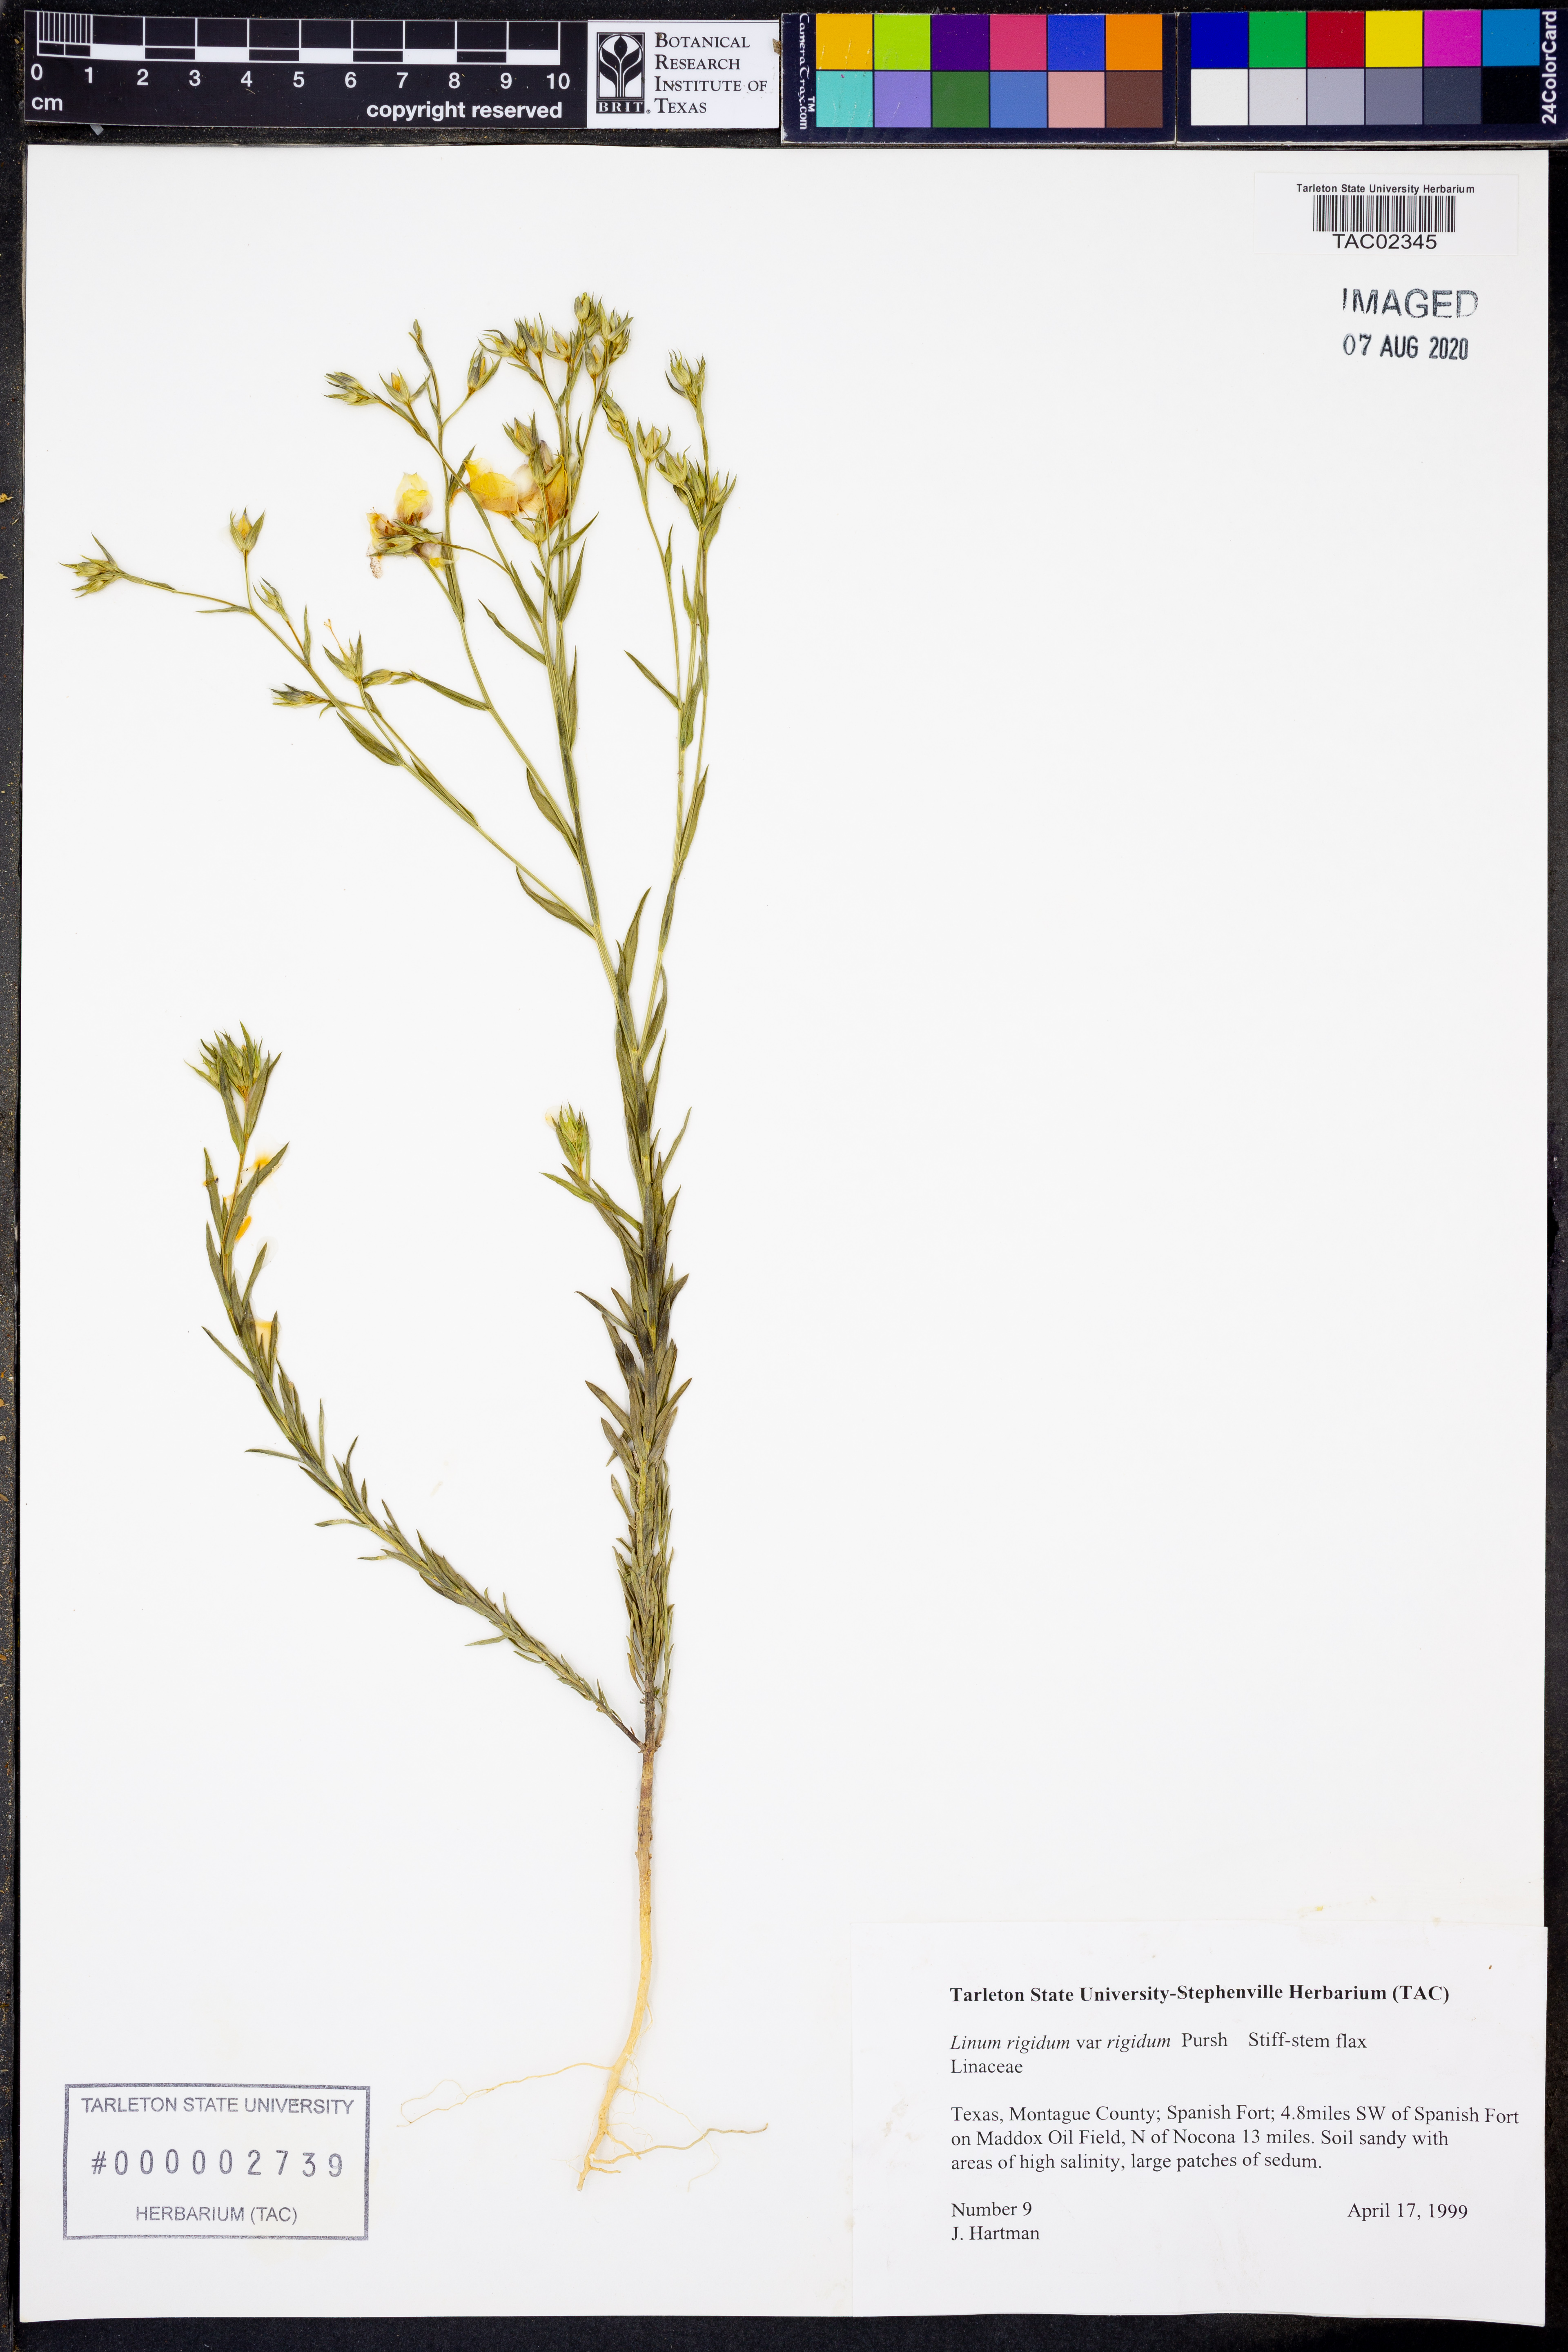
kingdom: Plantae
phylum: Tracheophyta
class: Magnoliopsida
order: Malpighiales
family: Linaceae
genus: Linum
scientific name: Linum rigidum
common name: Stiff-stem flax
